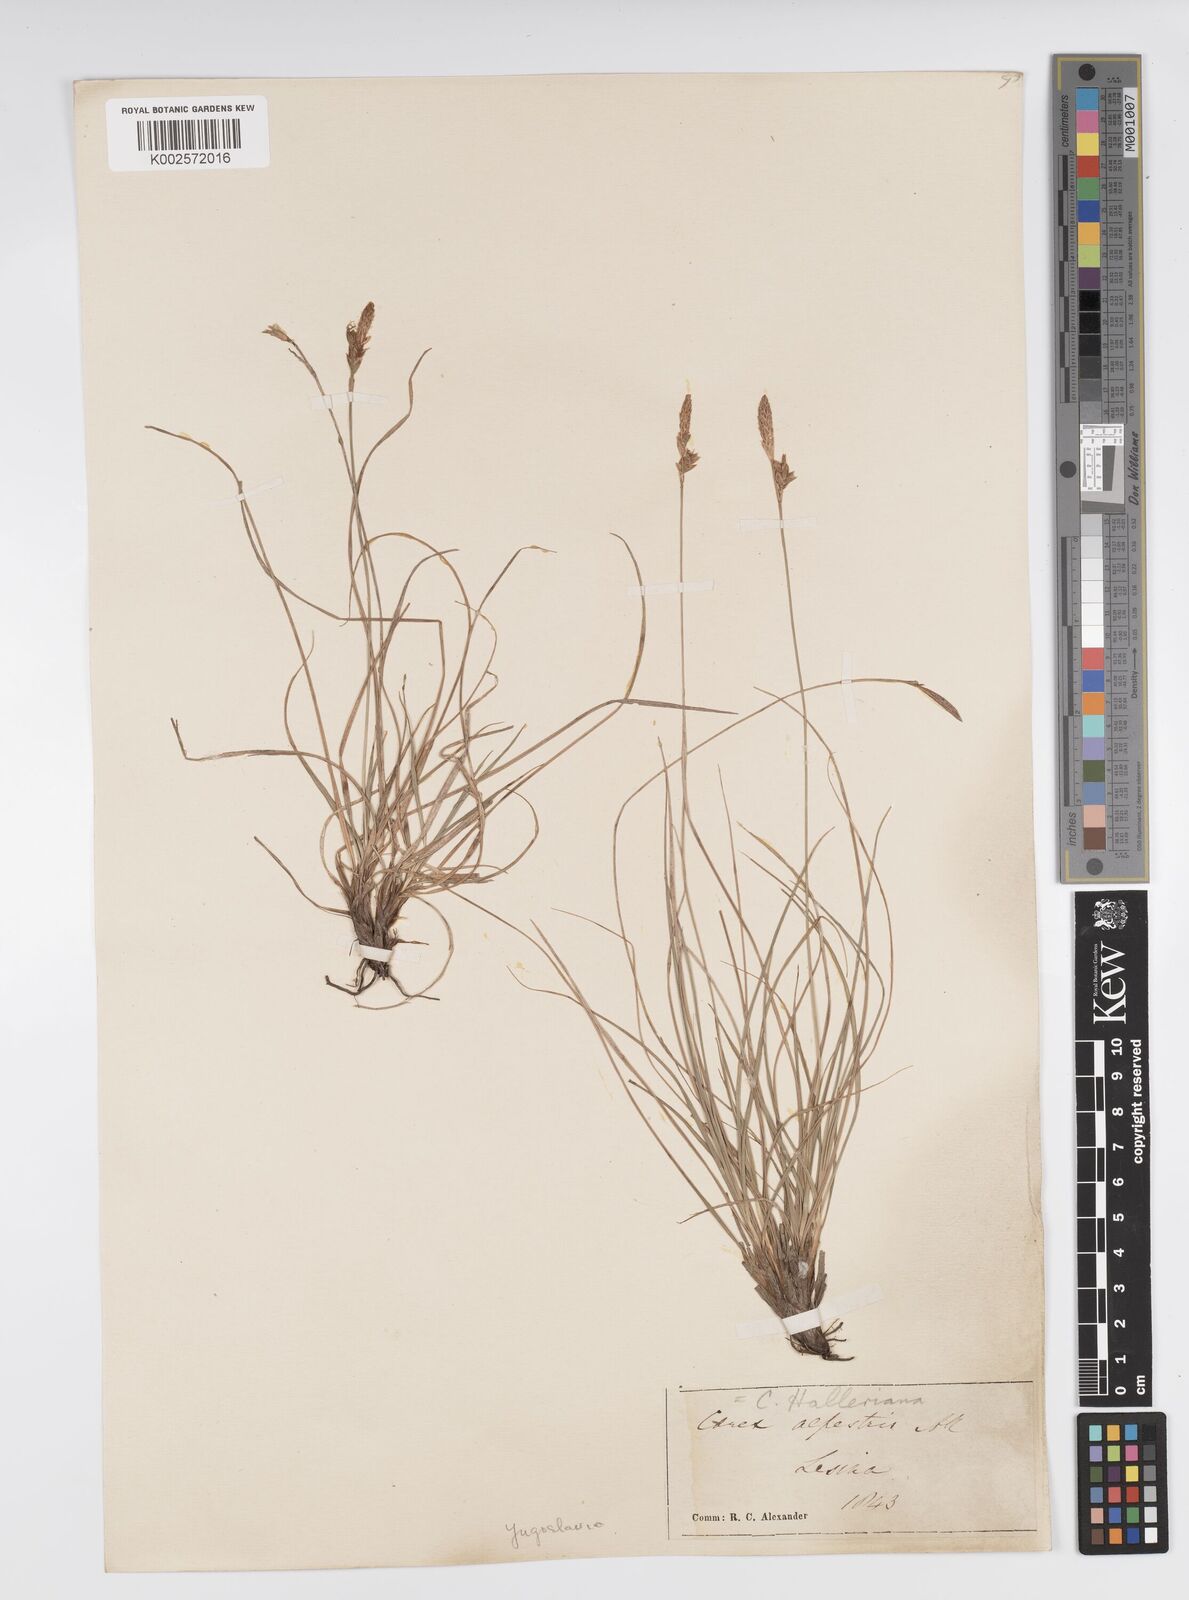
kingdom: Plantae
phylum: Tracheophyta
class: Liliopsida
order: Poales
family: Cyperaceae
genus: Carex
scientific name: Carex halleriana
